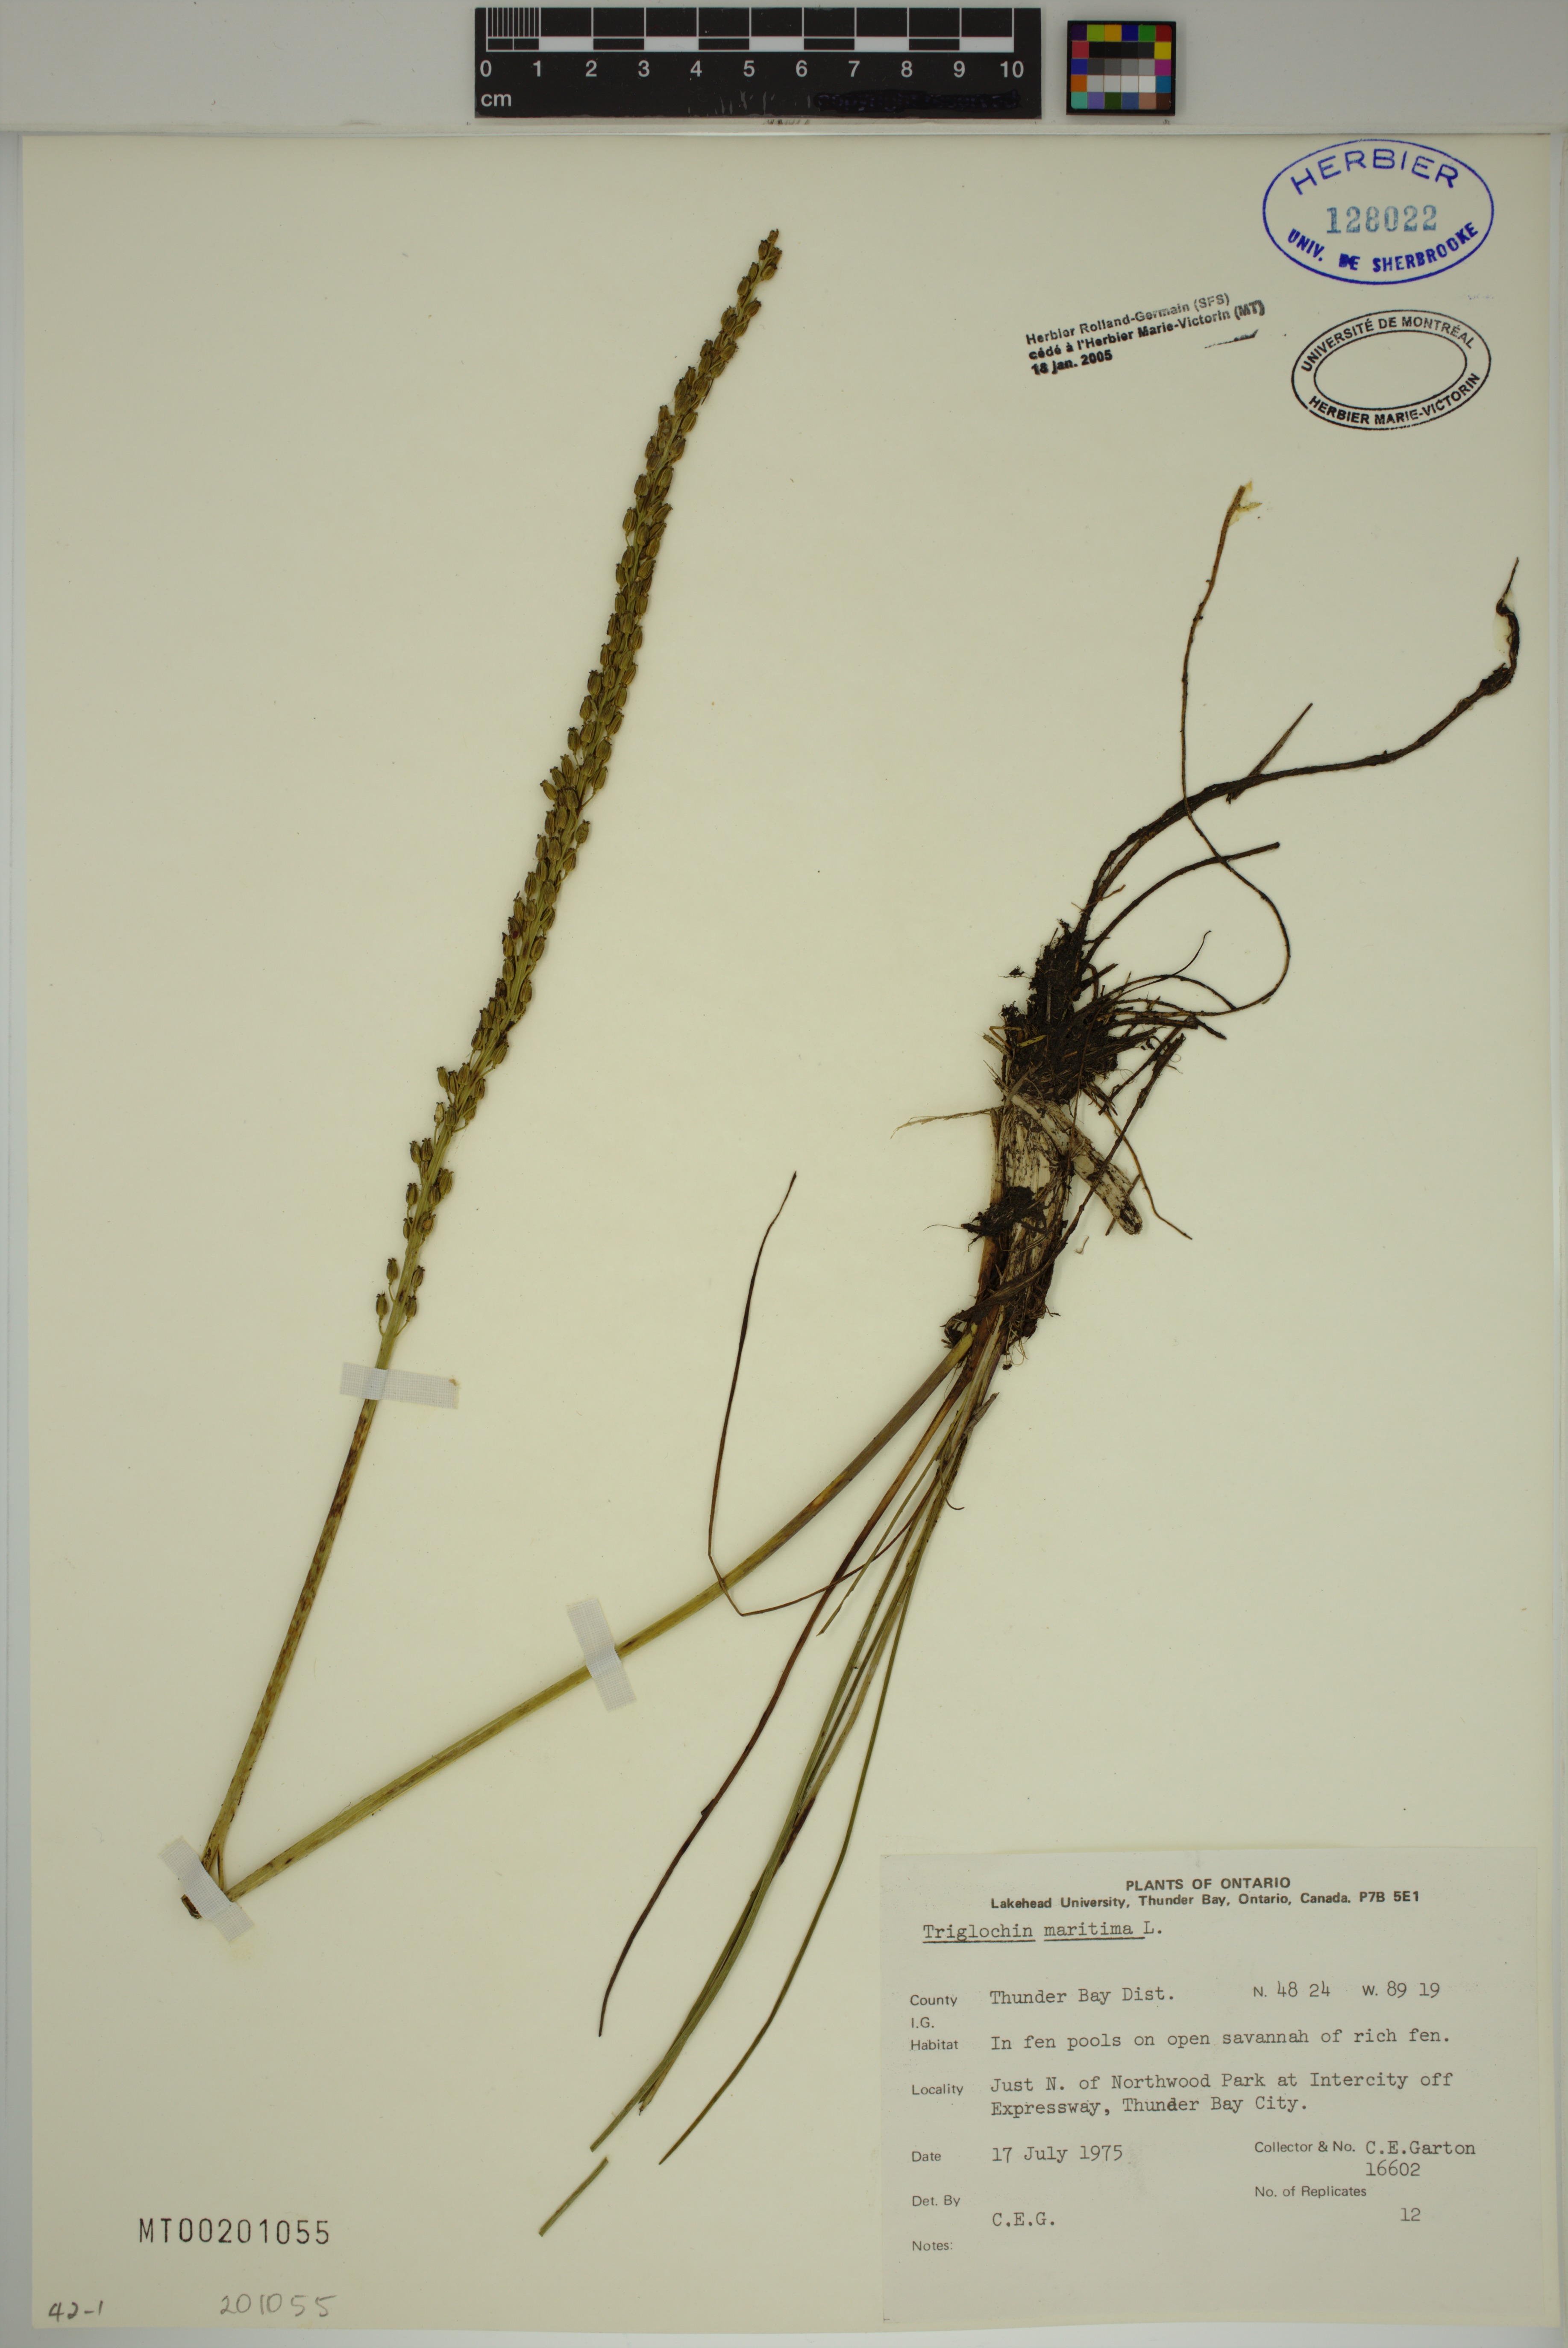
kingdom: Plantae
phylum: Tracheophyta
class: Liliopsida
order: Alismatales
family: Juncaginaceae
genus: Triglochin
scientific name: Triglochin maritima
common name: Sea arrowgrass
